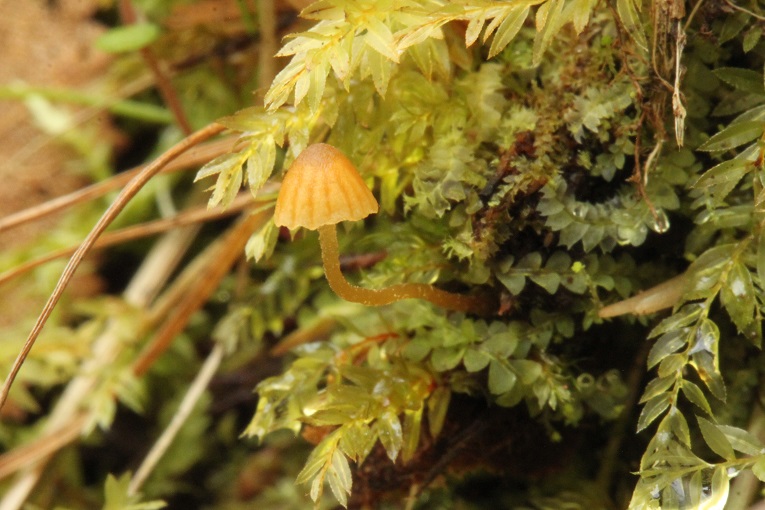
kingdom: Fungi
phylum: Basidiomycota
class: Agaricomycetes
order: Agaricales
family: Hymenogastraceae
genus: Galerina
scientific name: Galerina hypnorum
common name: mos-hjelmhat
